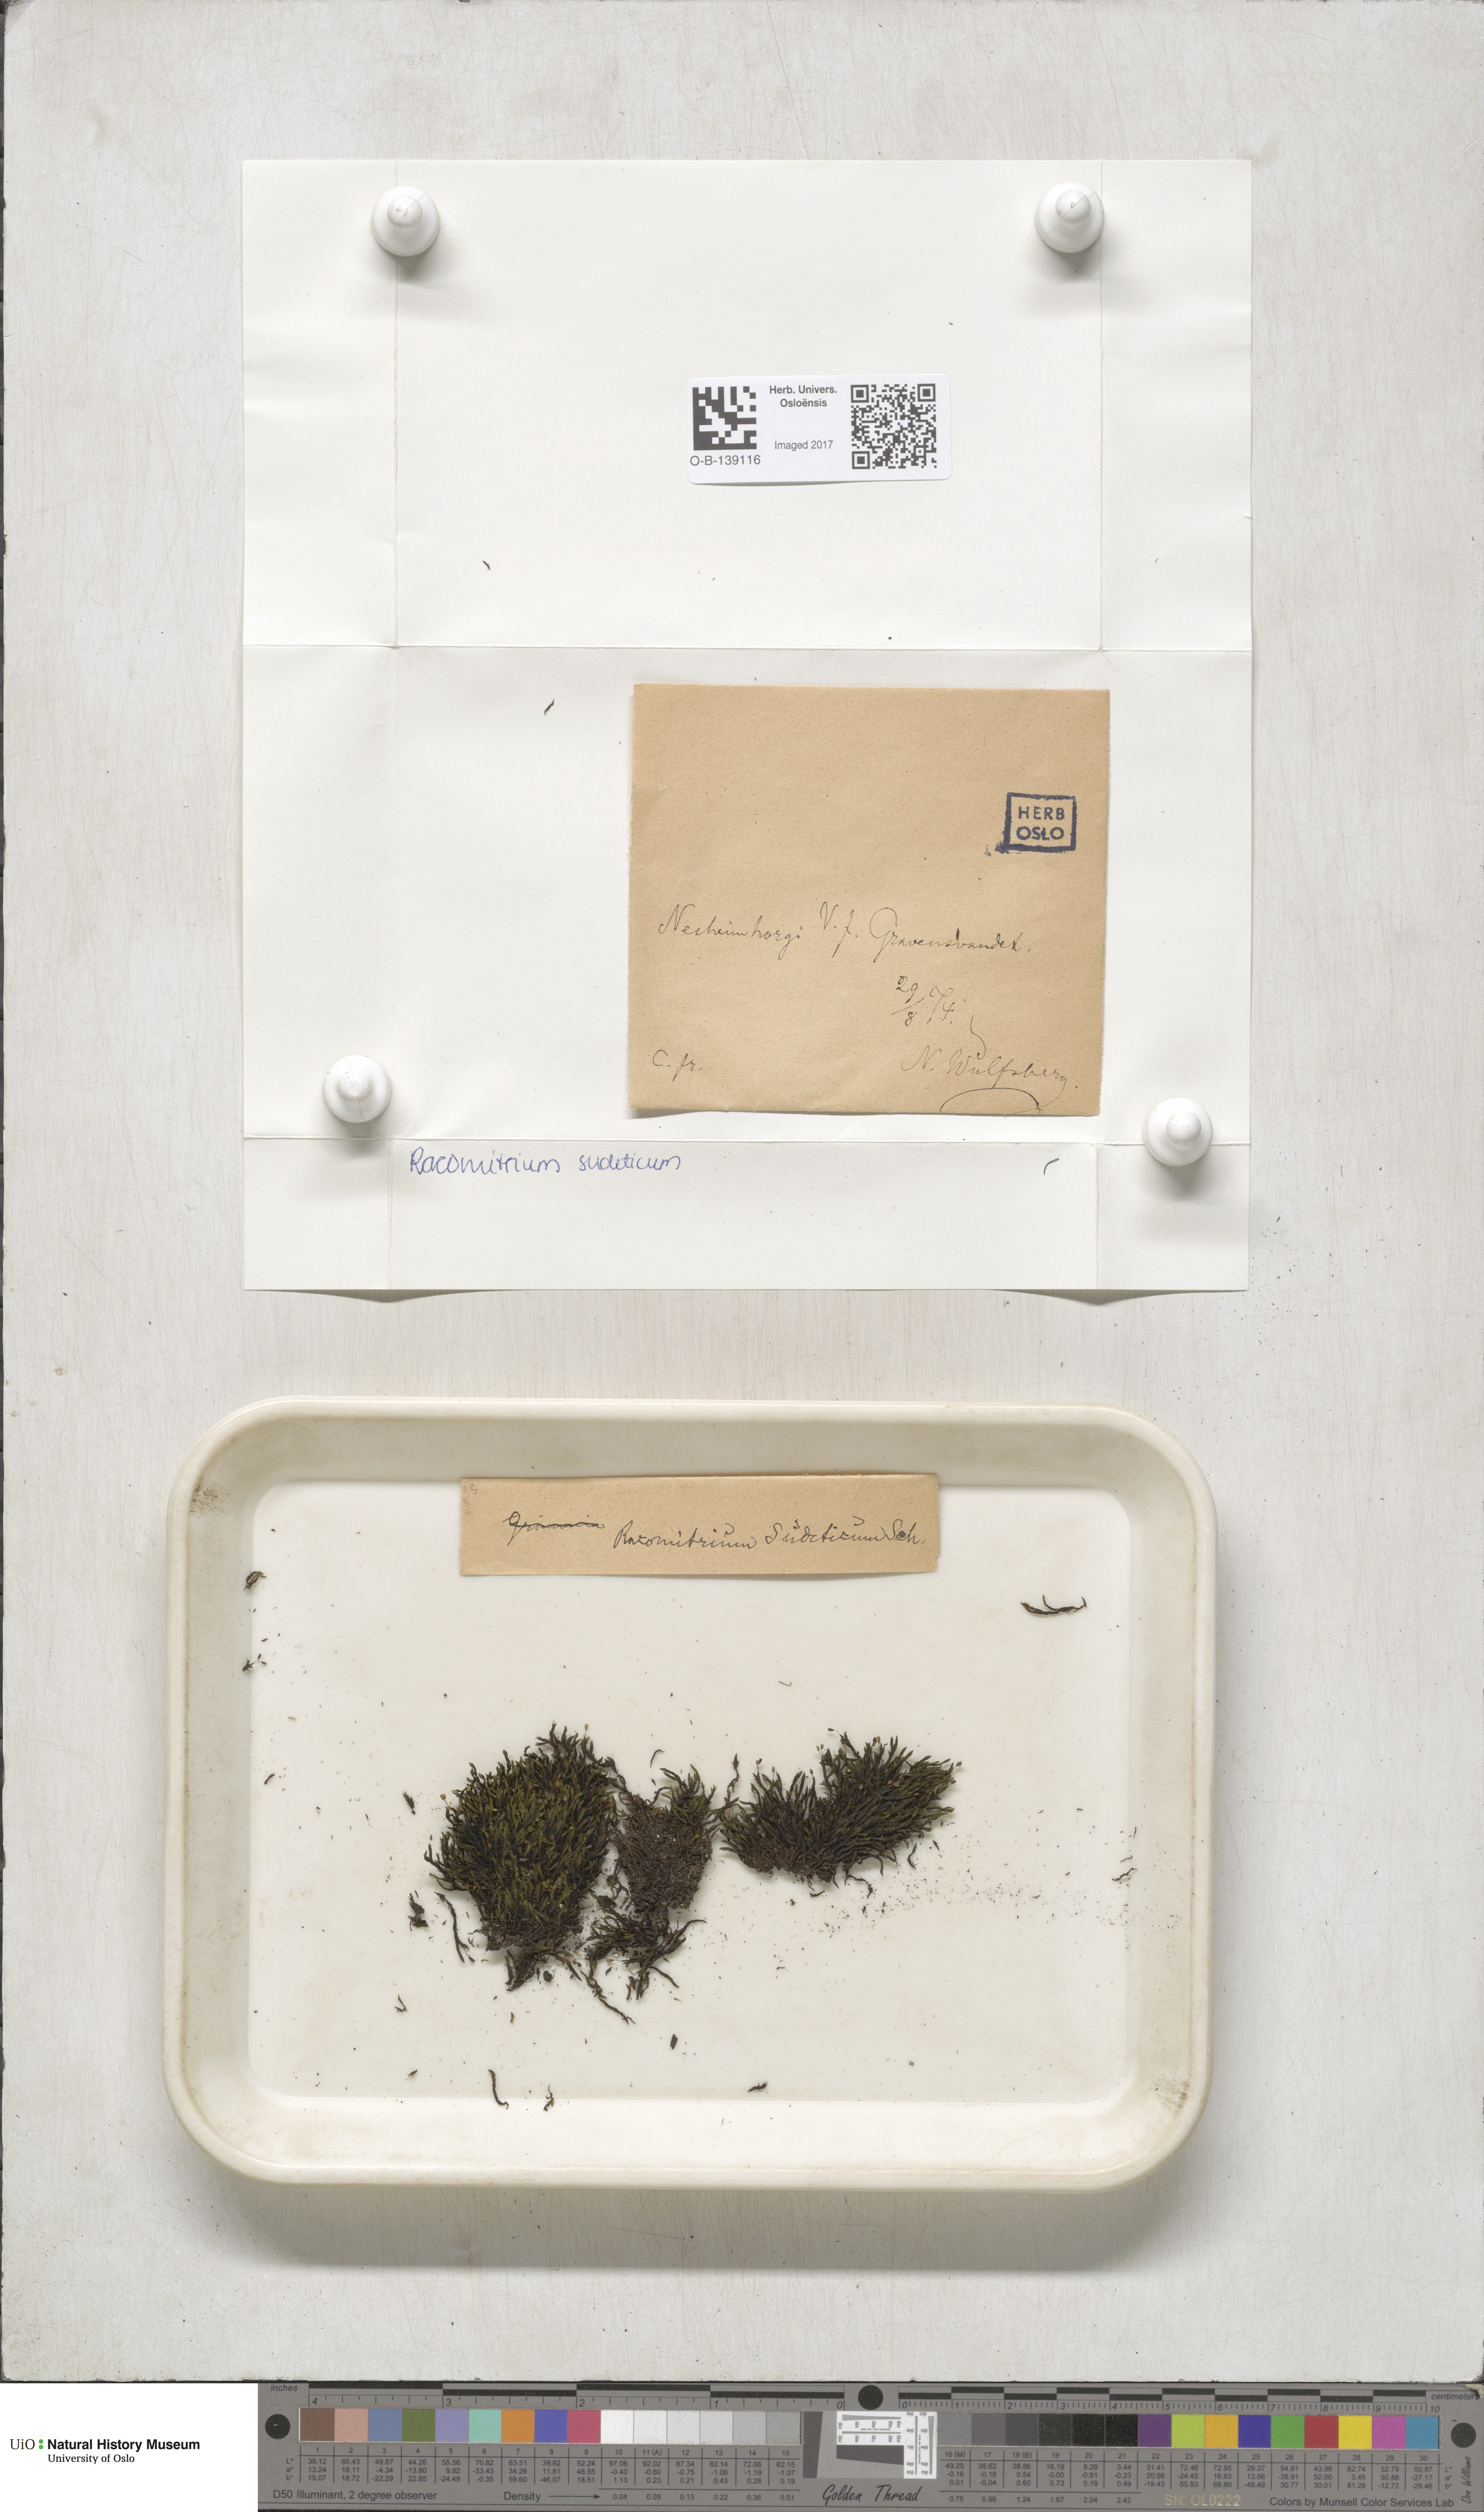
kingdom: Plantae
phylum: Bryophyta
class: Bryopsida
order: Grimmiales
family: Grimmiaceae
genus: Bucklandiella
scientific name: Bucklandiella sudetica
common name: Slender fringe-moss
